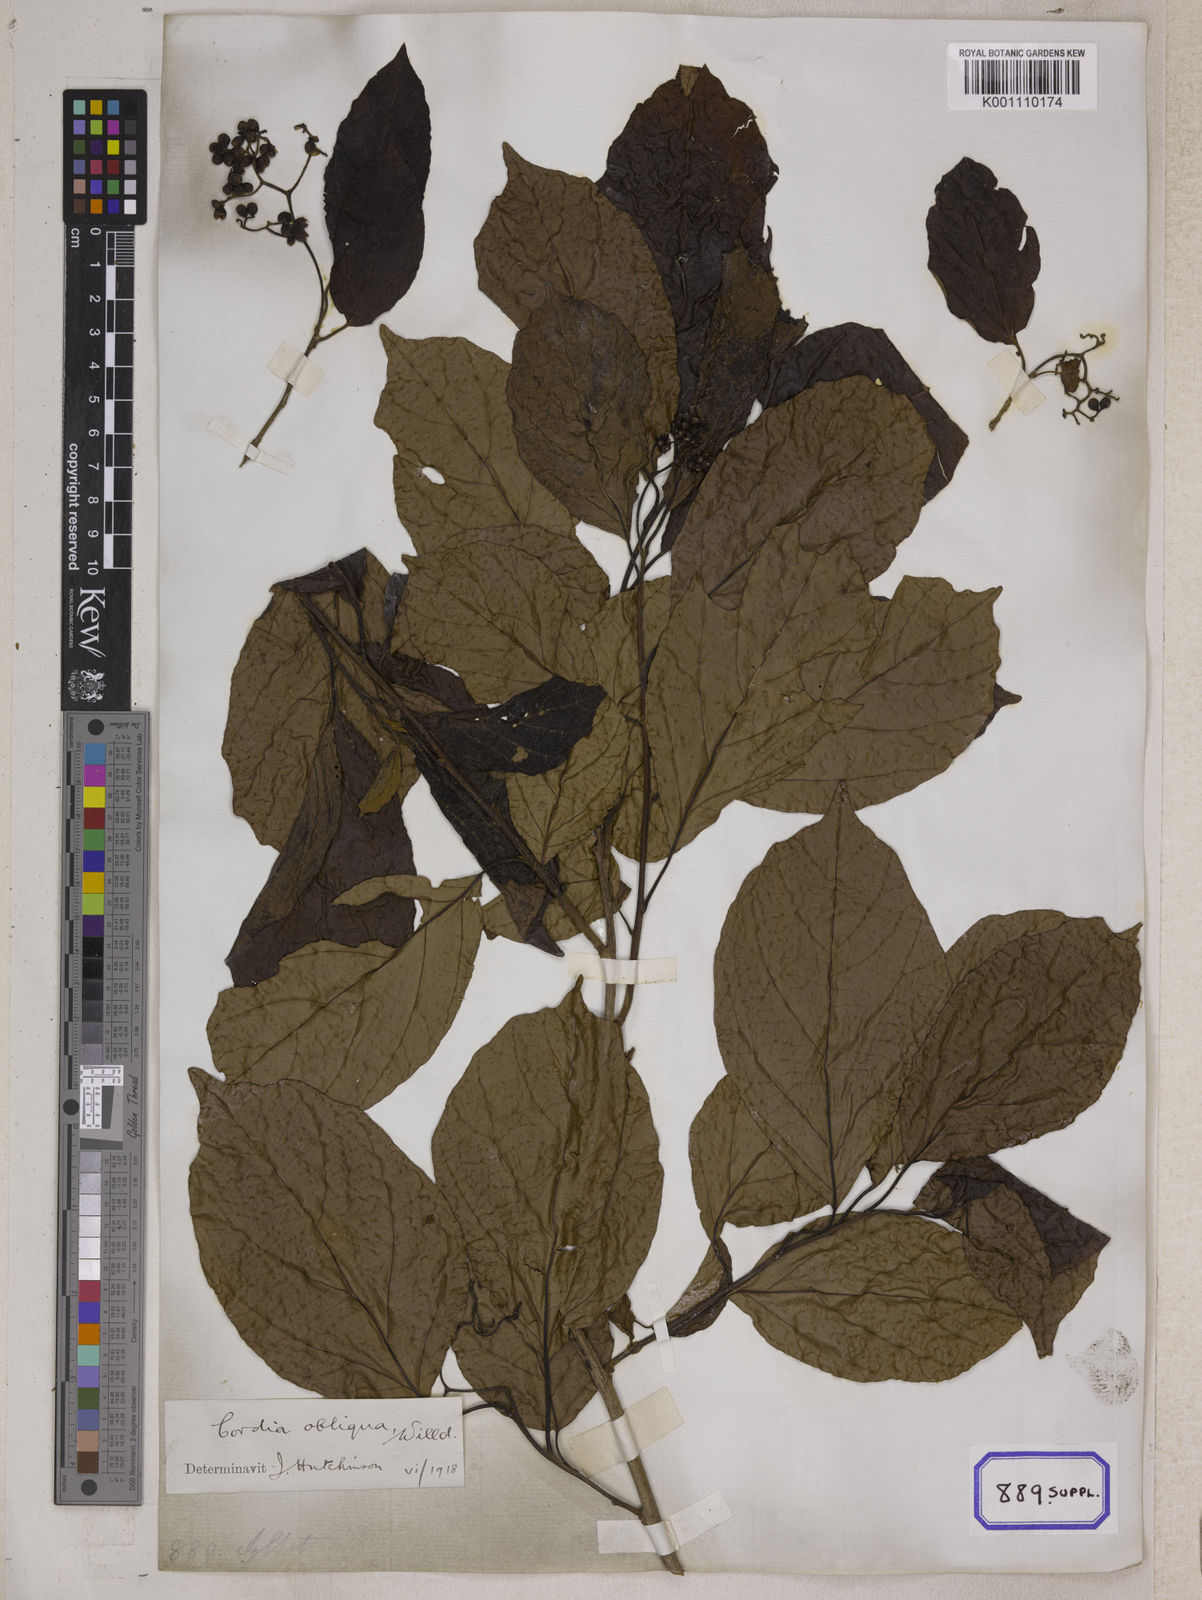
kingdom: Plantae
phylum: Tracheophyta
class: Magnoliopsida
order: Boraginales
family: Cordiaceae
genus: Cordia
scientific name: Cordia myxa
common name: Assyrian plum
